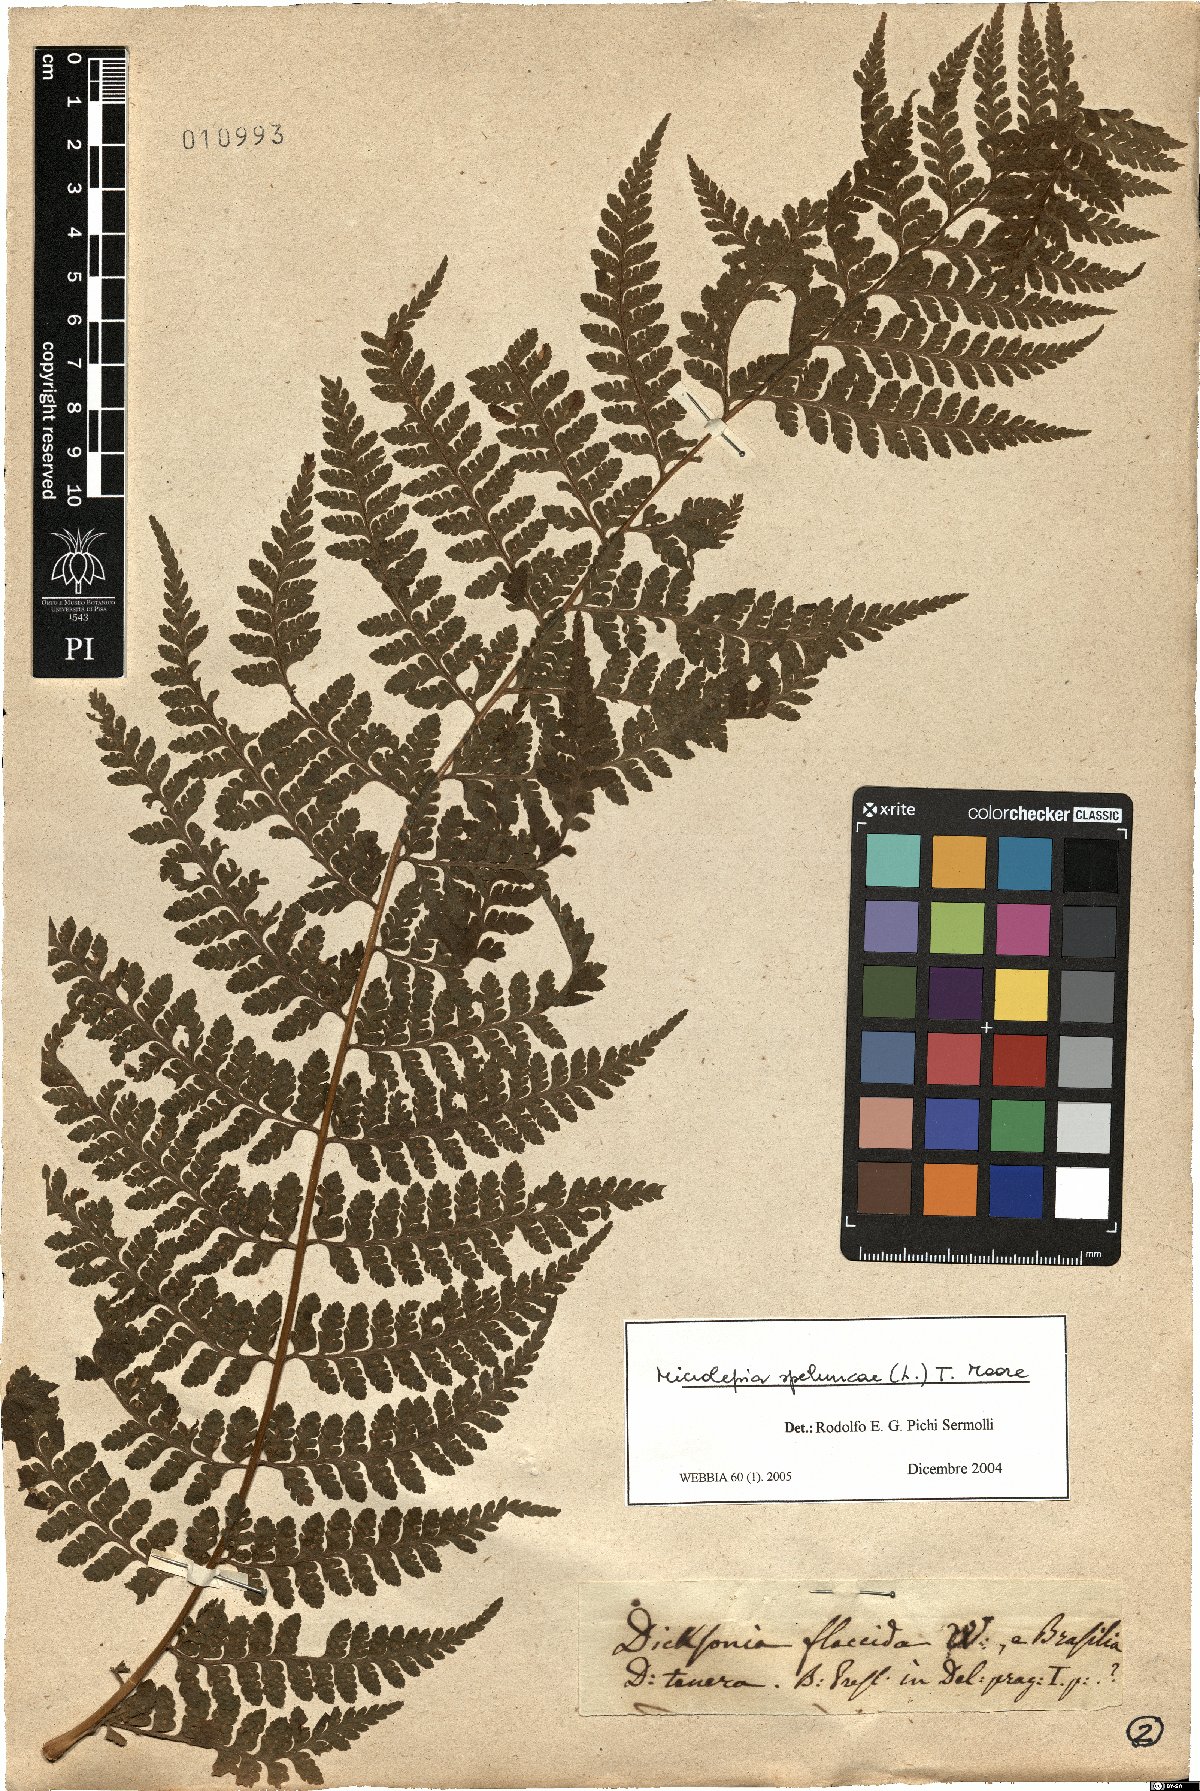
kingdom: Plantae
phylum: Tracheophyta
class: Polypodiopsida
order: Polypodiales
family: Dennstaedtiaceae
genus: Microlepia
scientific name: Microlepia speluncae
